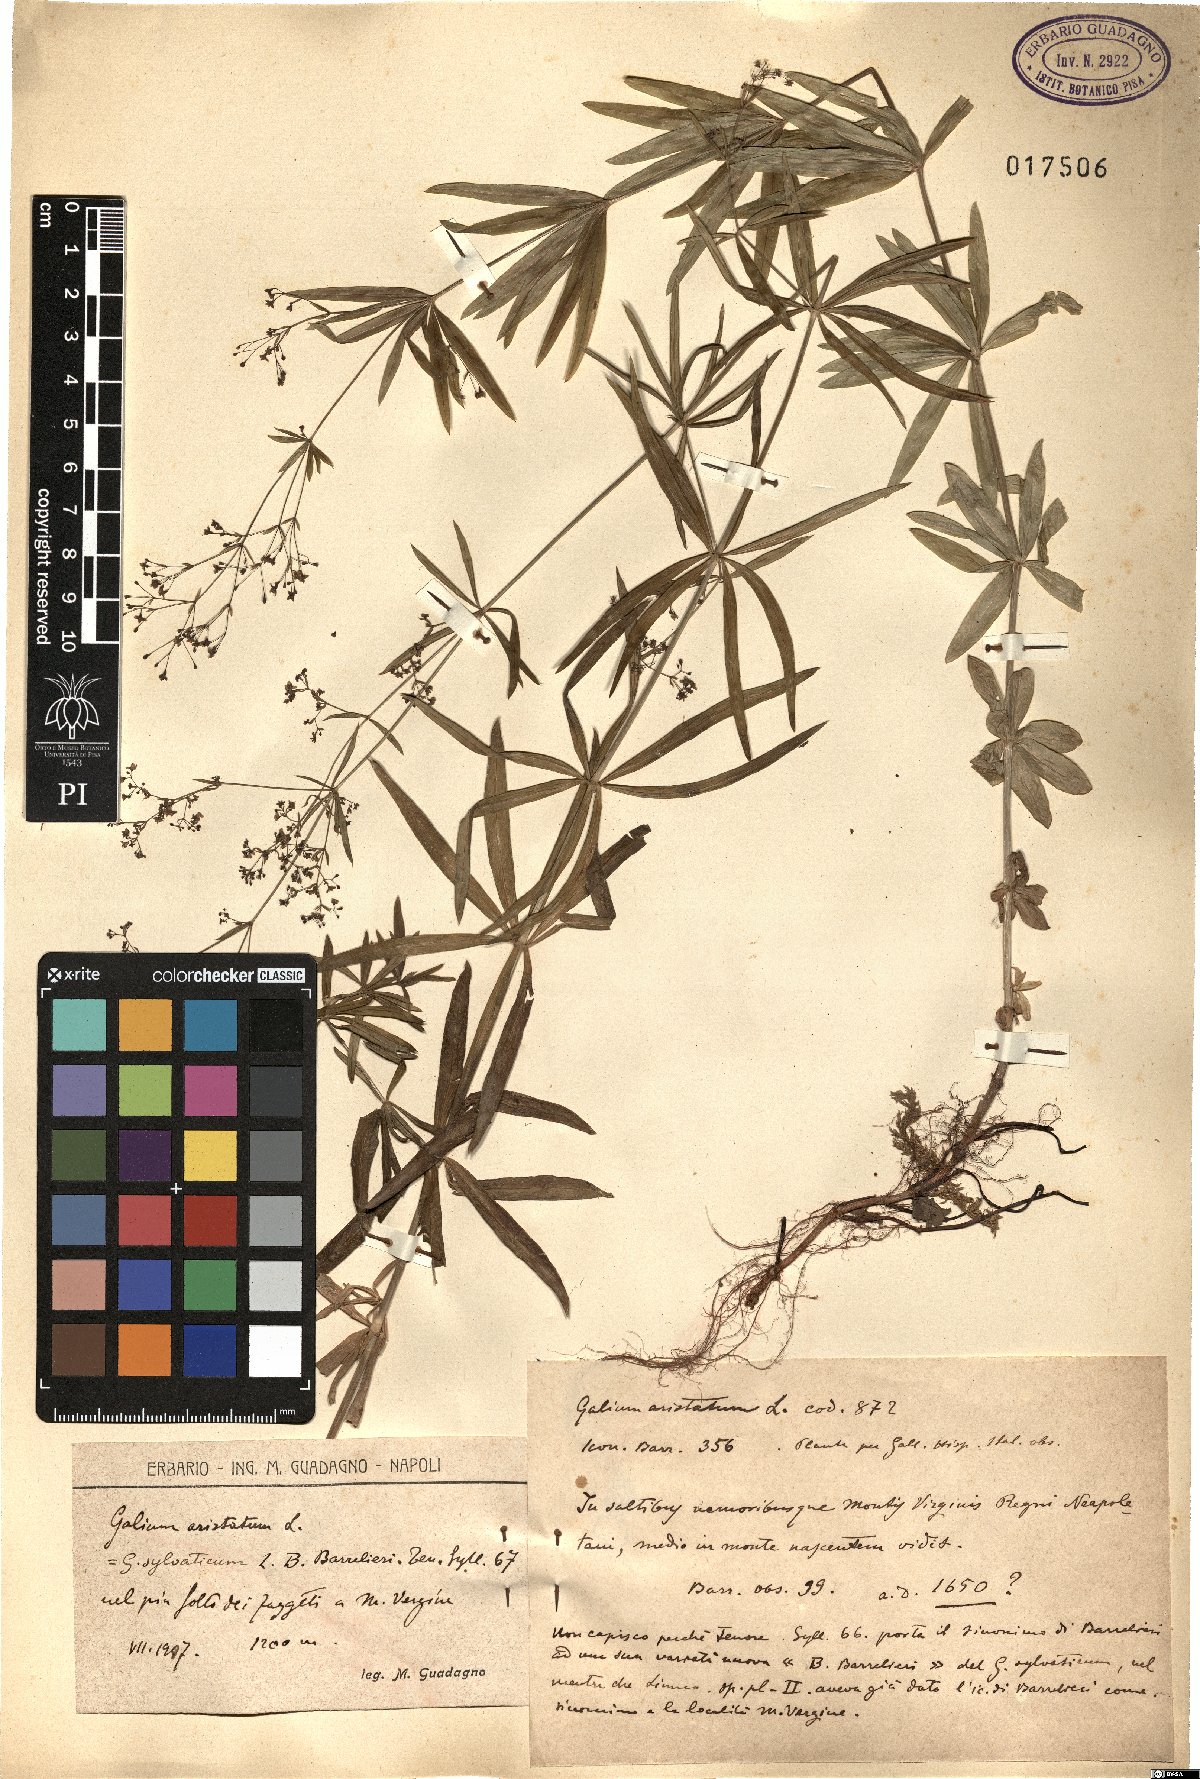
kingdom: Plantae
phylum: Tracheophyta
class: Magnoliopsida
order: Gentianales
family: Rubiaceae
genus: Galium
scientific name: Galium aristatum
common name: Awned bedstraw
